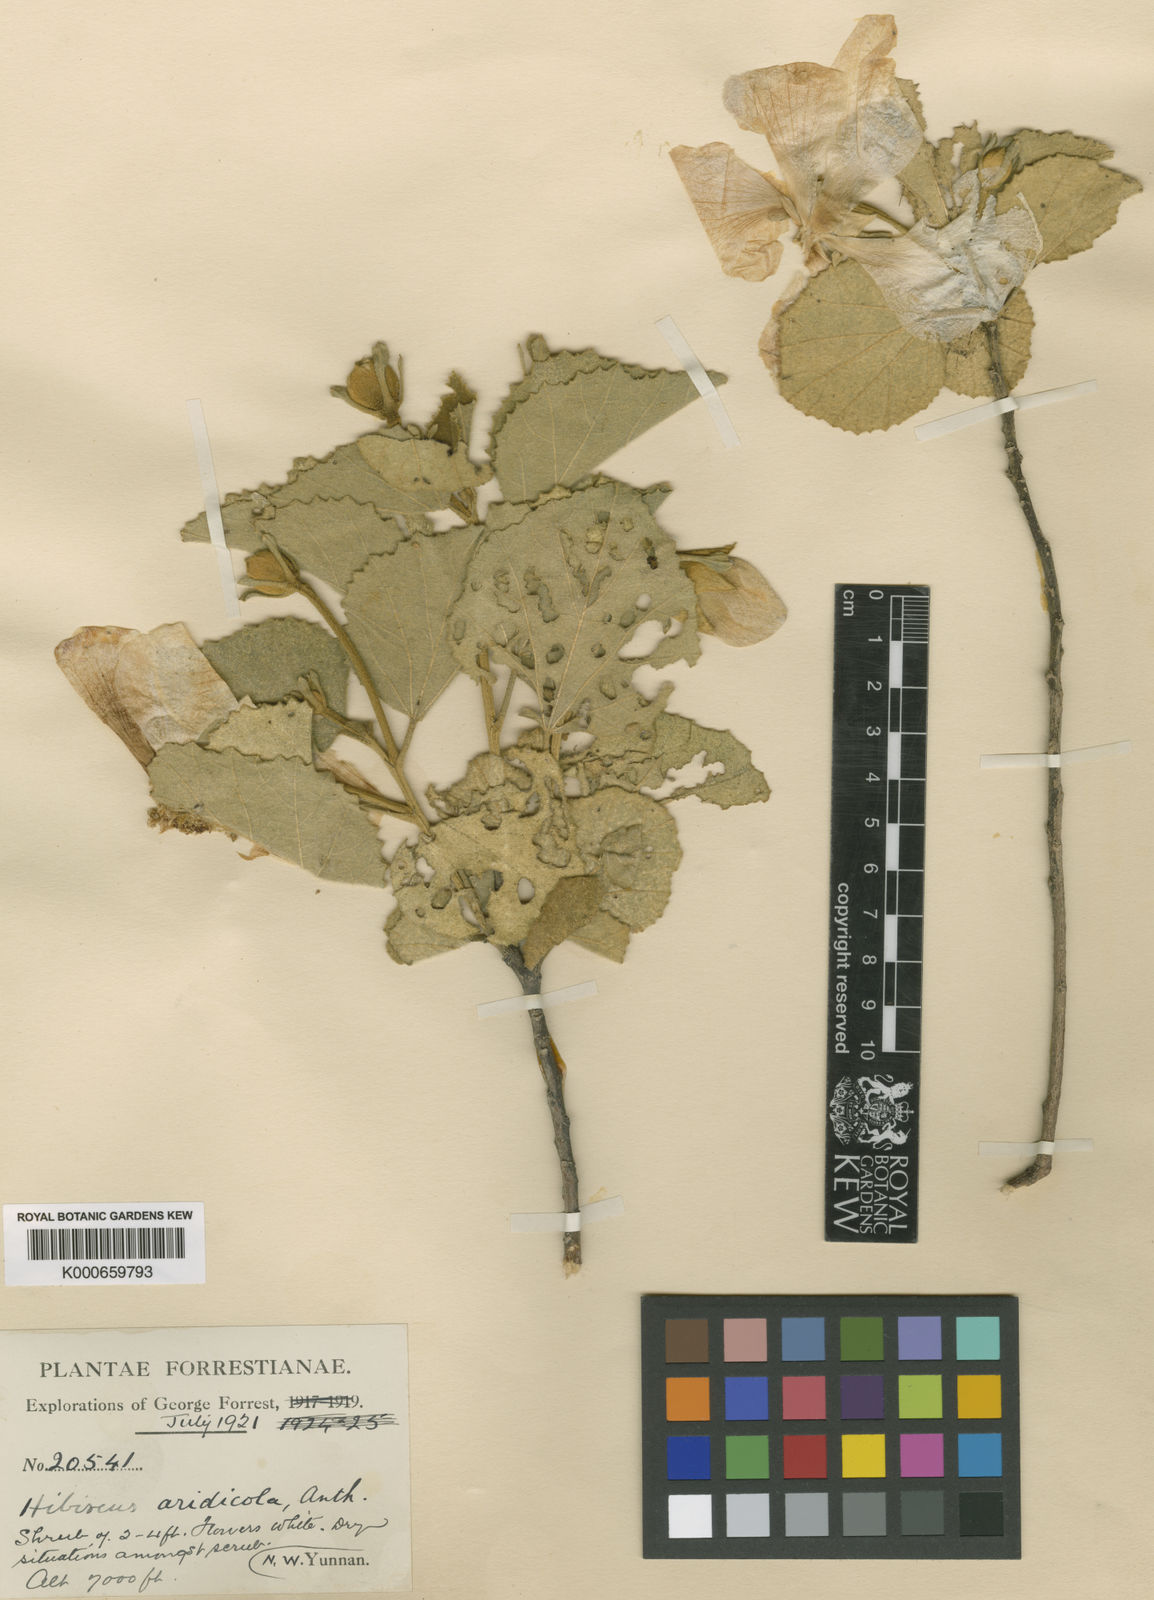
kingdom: Plantae
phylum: Tracheophyta
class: Magnoliopsida
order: Malvales
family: Malvaceae
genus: Hibiscus
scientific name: Hibiscus aridicola
